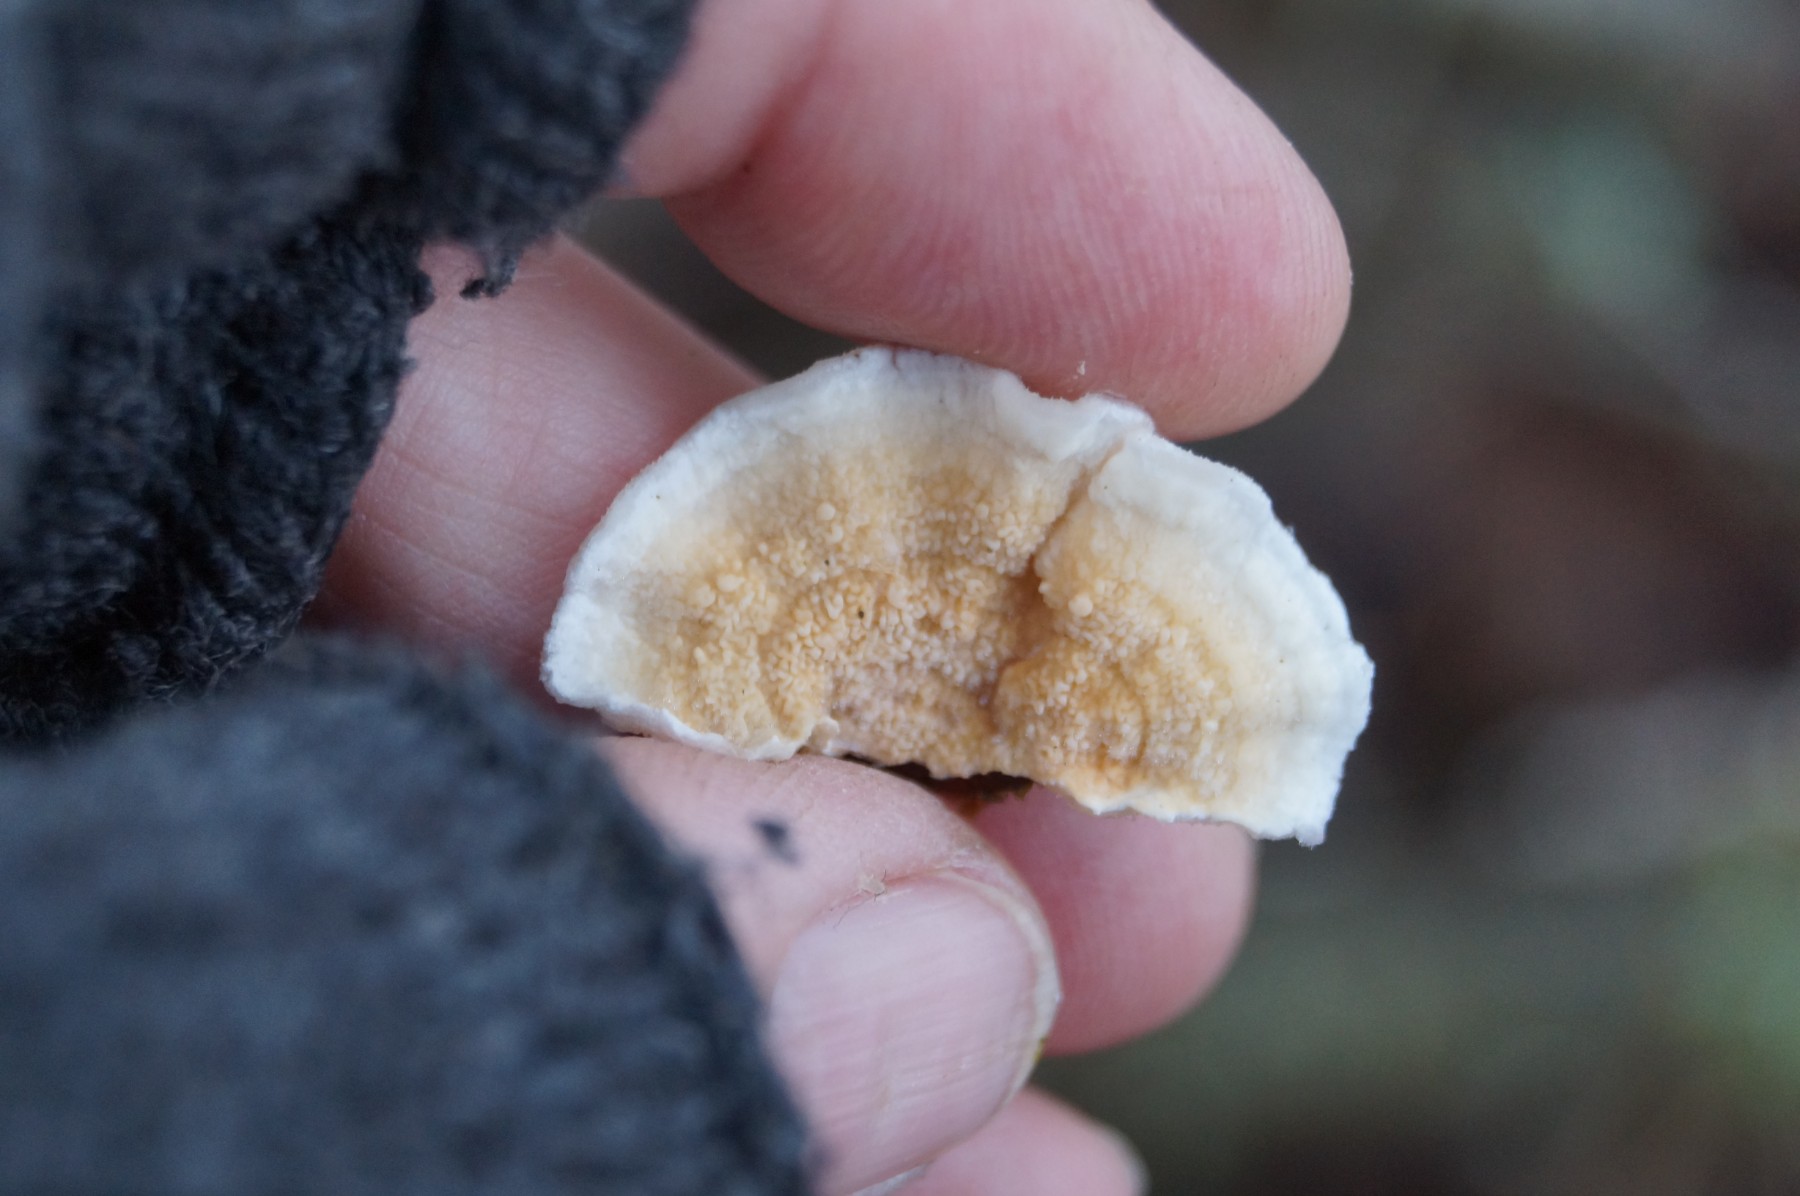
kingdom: Fungi
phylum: Basidiomycota
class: Agaricomycetes
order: Polyporales
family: Irpicaceae
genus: Byssomerulius
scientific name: Byssomerulius corium
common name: læder-åresvamp
